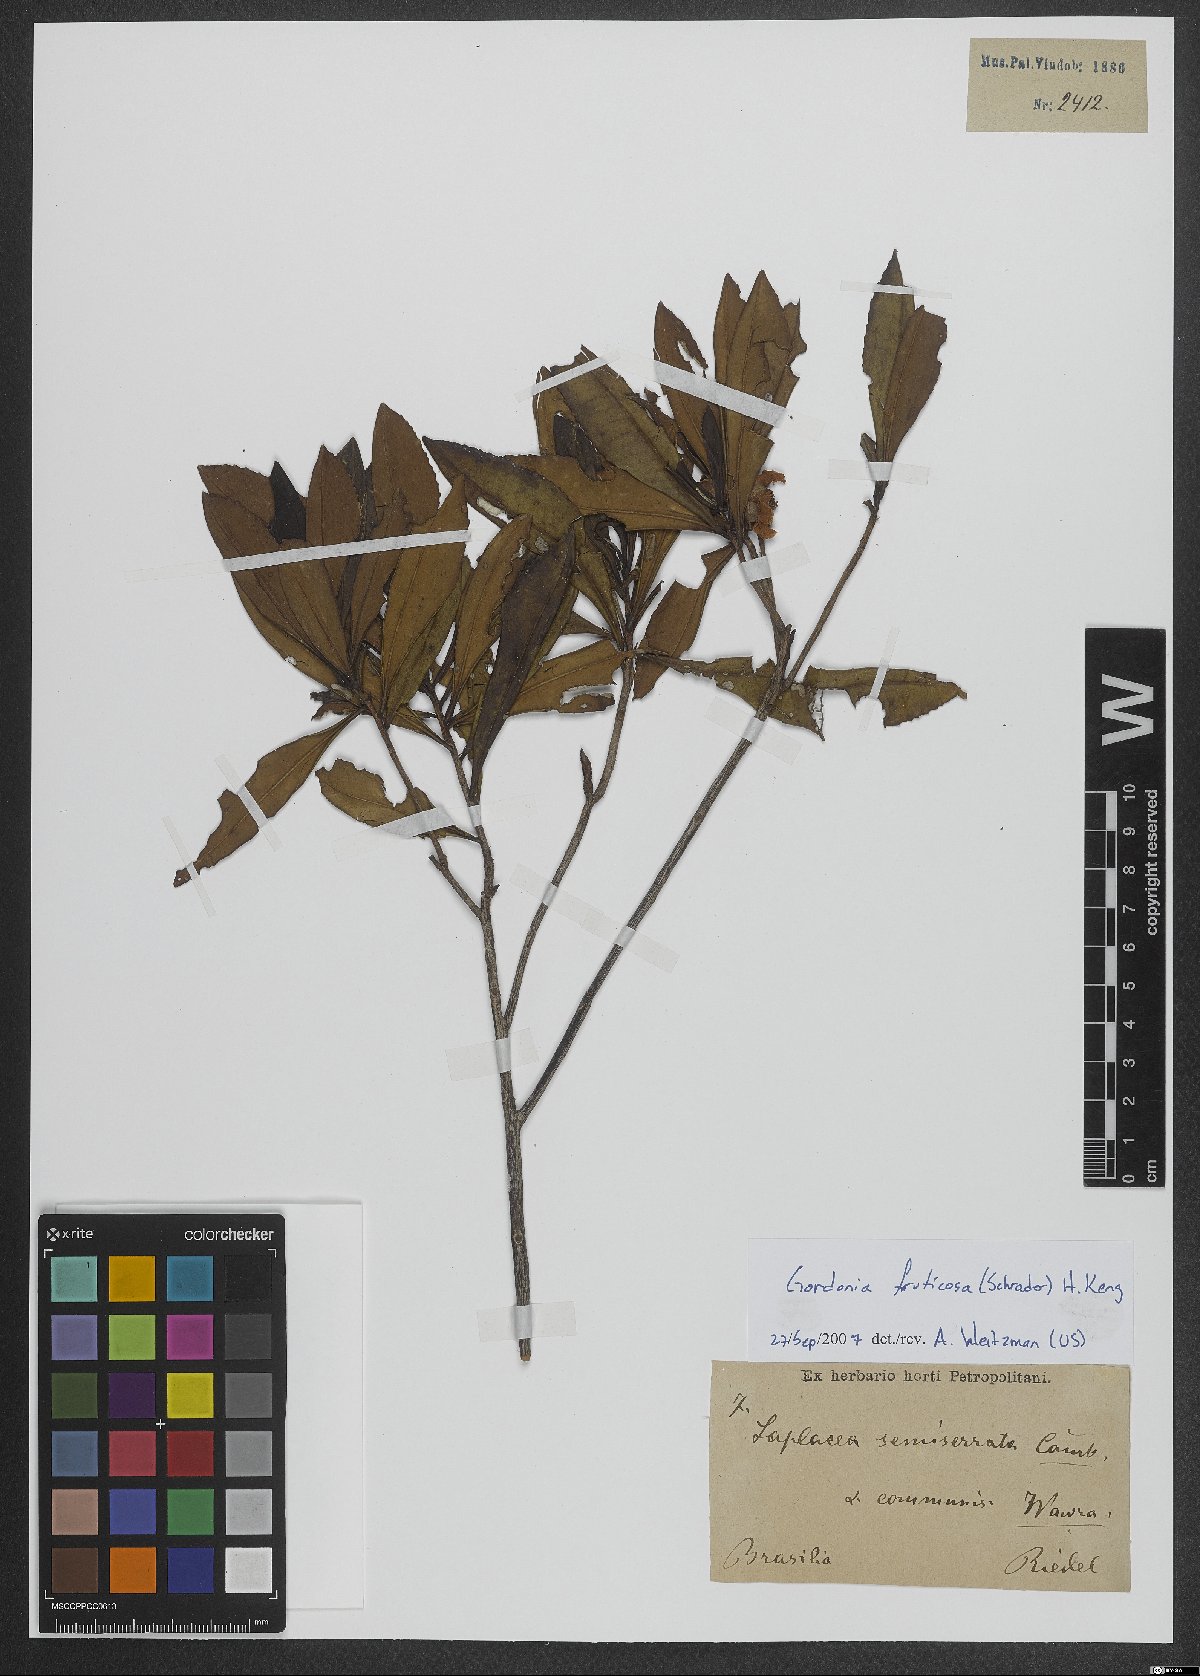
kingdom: Plantae
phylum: Tracheophyta
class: Magnoliopsida
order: Ericales
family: Theaceae
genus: Gordonia
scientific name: Gordonia fruticosa
